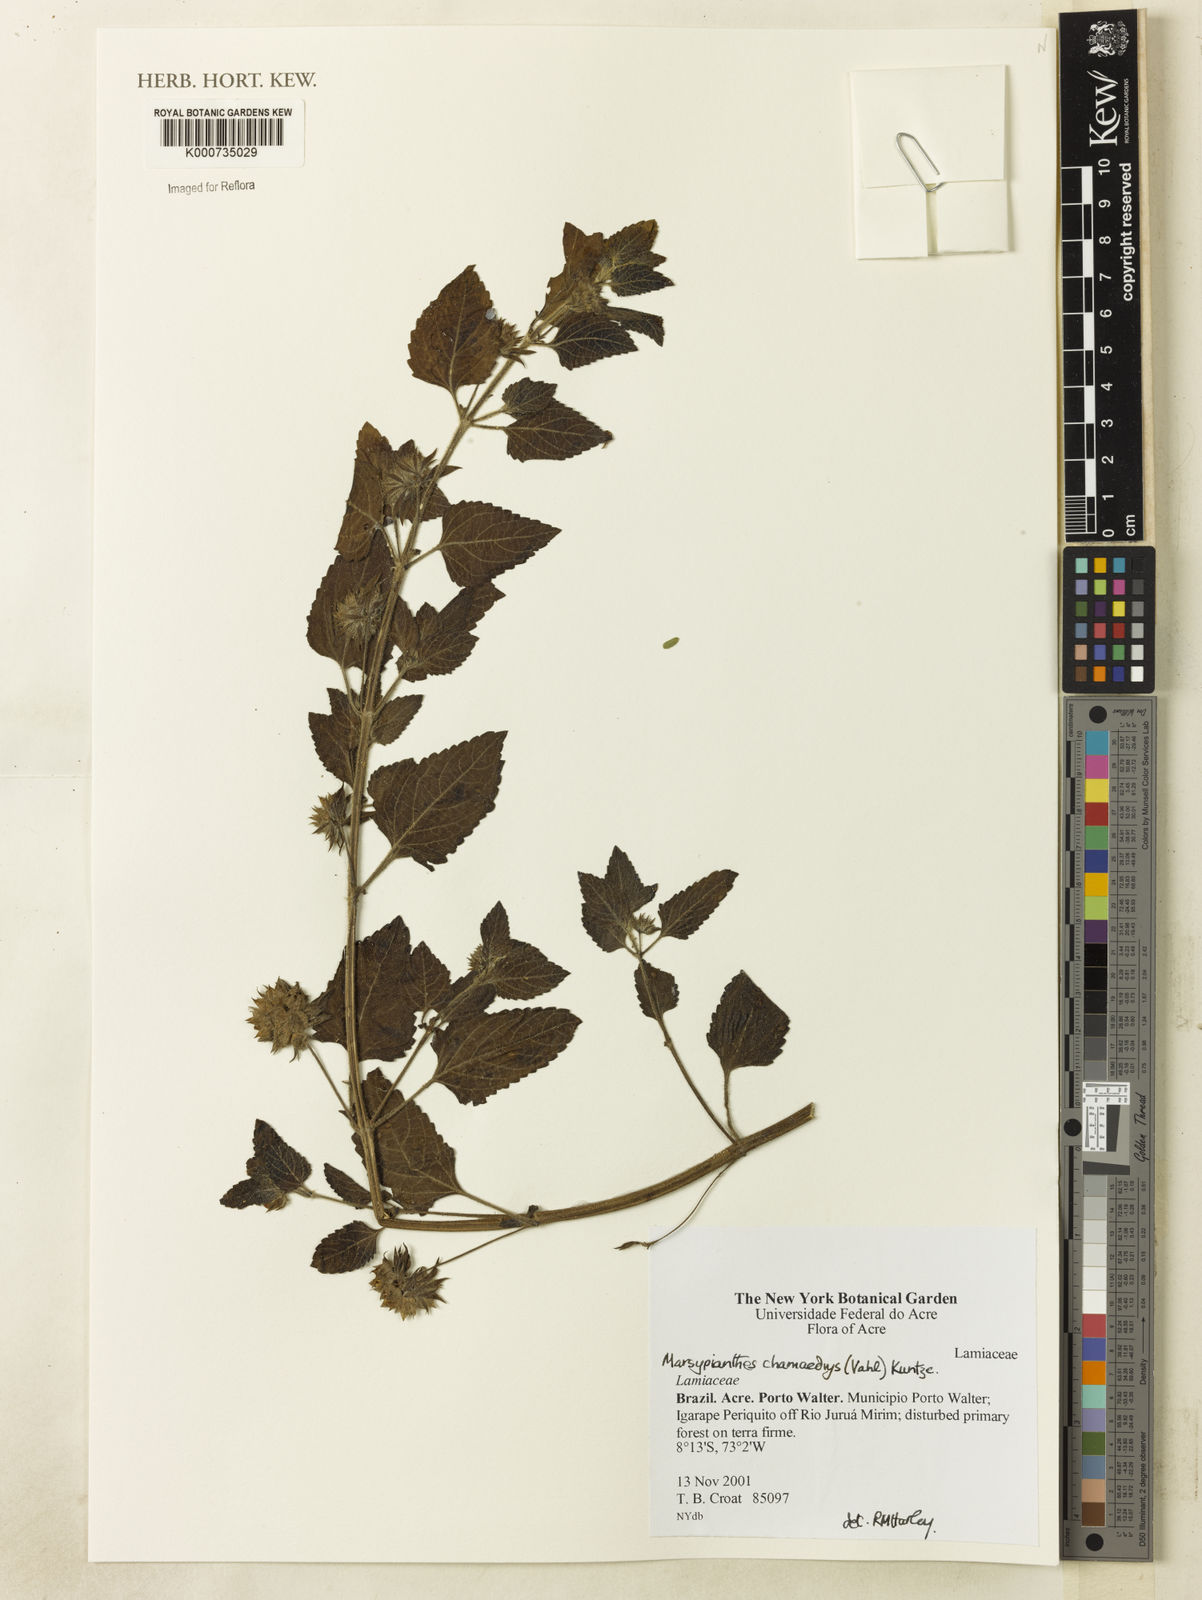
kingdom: Plantae
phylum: Tracheophyta
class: Magnoliopsida
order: Lamiales
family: Lamiaceae
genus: Marsypianthes
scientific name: Marsypianthes chamaedrys
